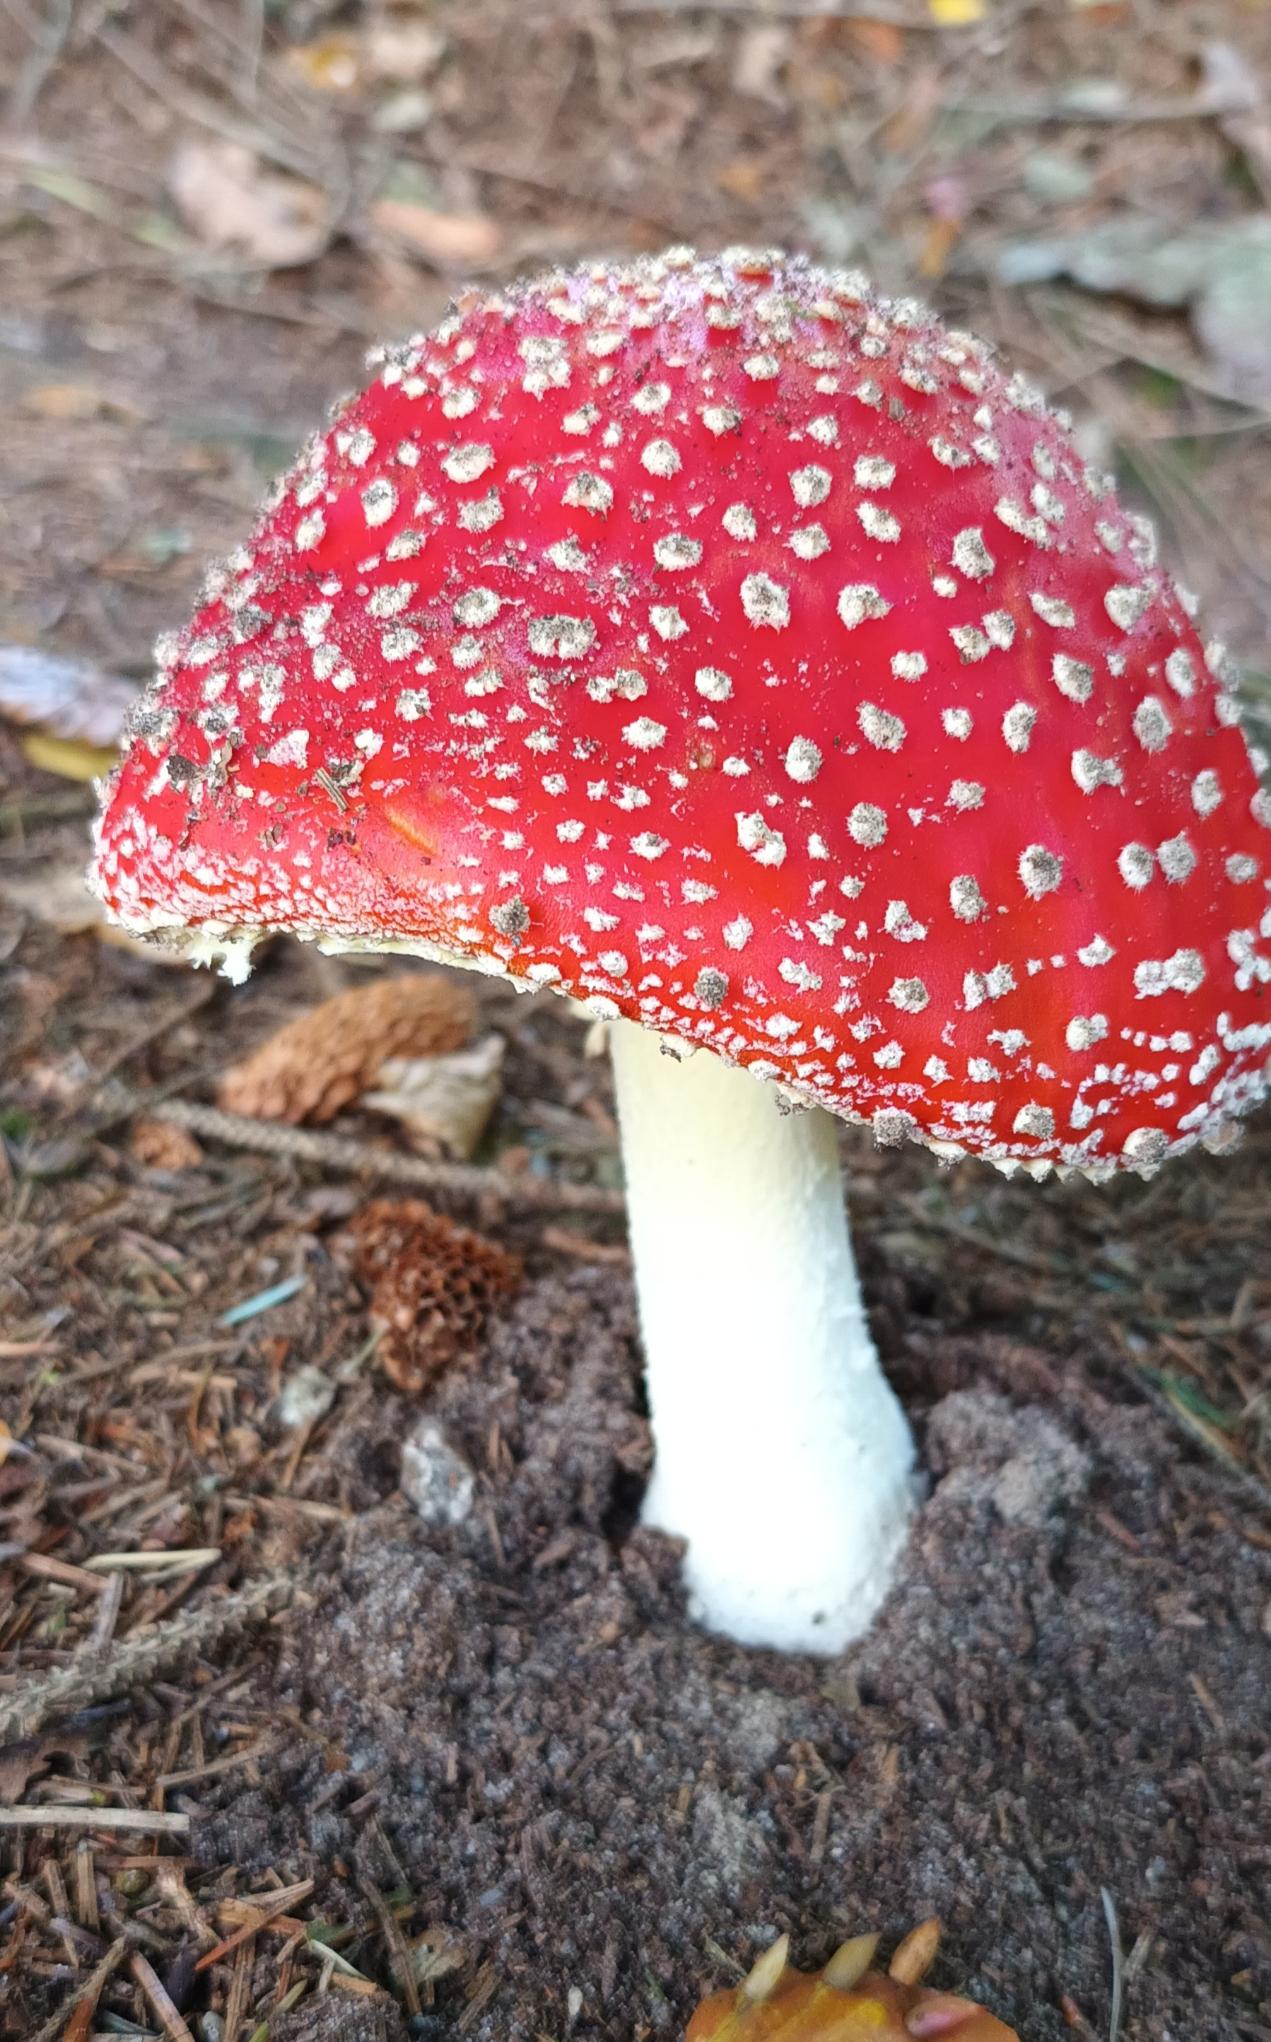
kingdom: Fungi
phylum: Basidiomycota
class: Agaricomycetes
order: Agaricales
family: Amanitaceae
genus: Amanita
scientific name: Amanita muscaria
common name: Rød fluesvamp
